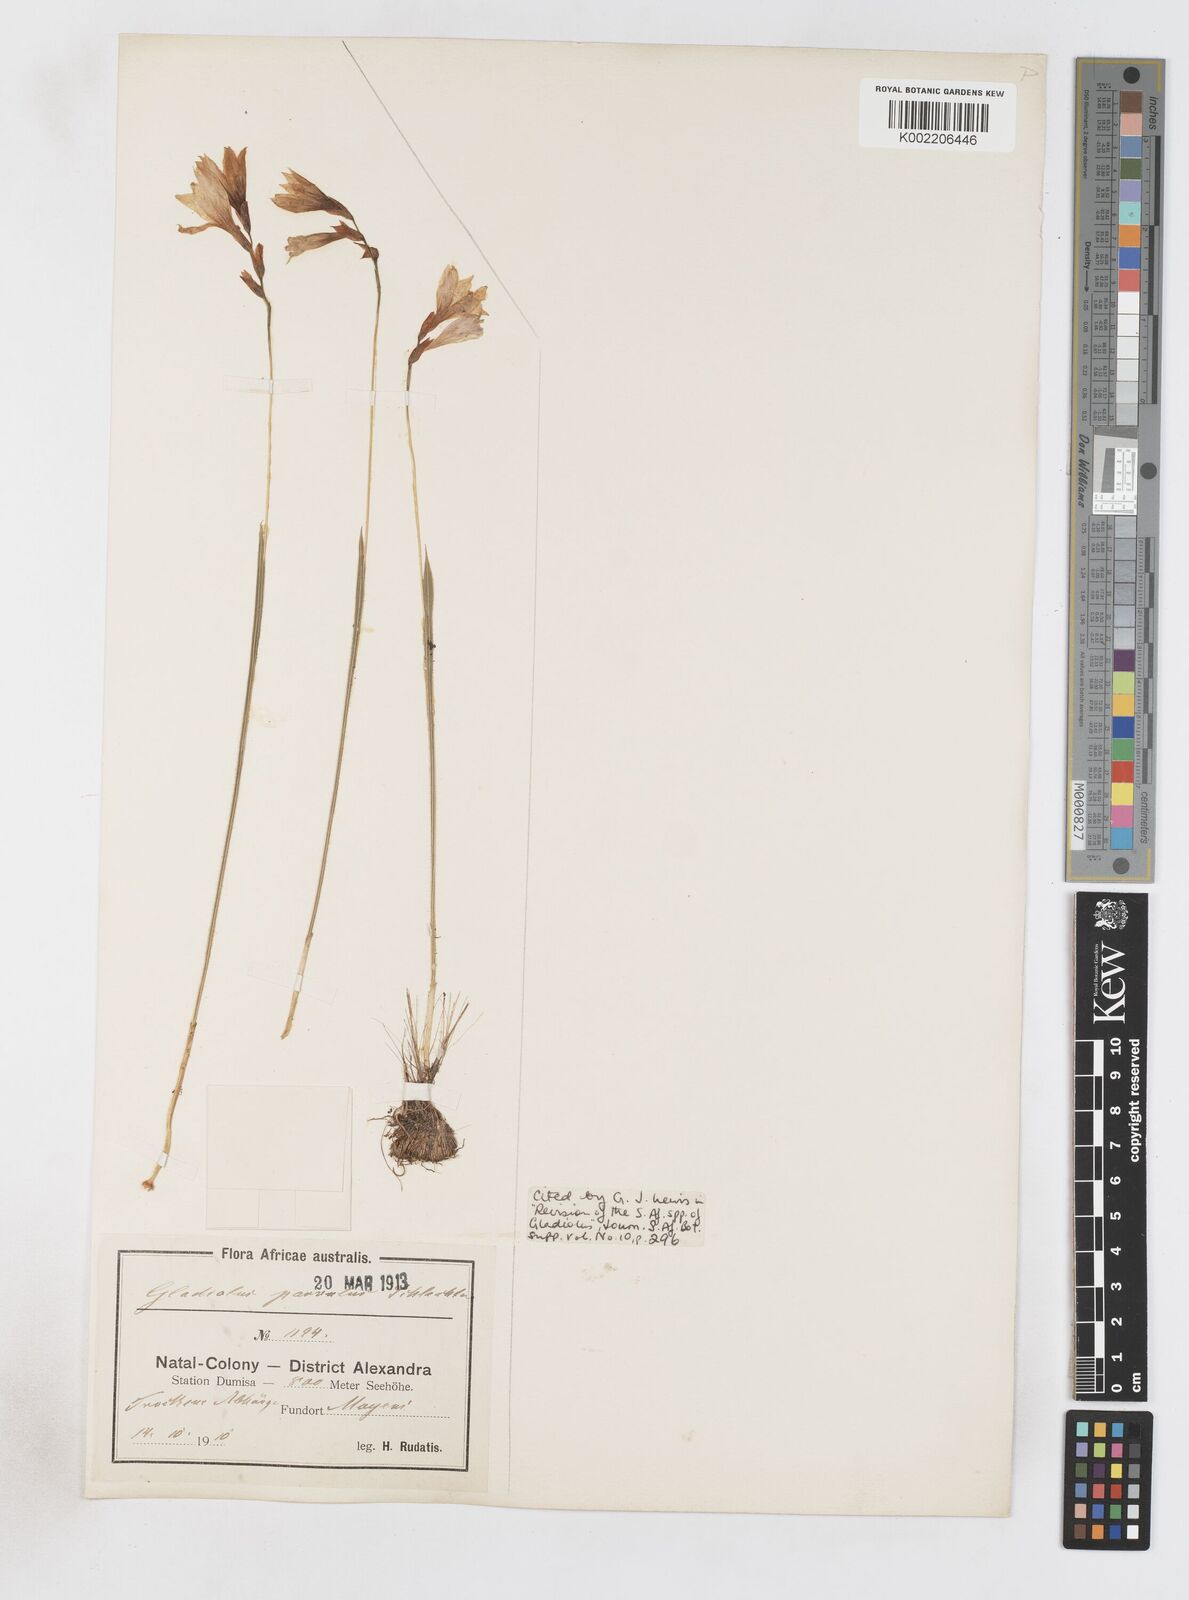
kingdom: Plantae
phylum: Tracheophyta
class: Liliopsida
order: Asparagales
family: Iridaceae
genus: Gladiolus
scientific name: Gladiolus parvulus
